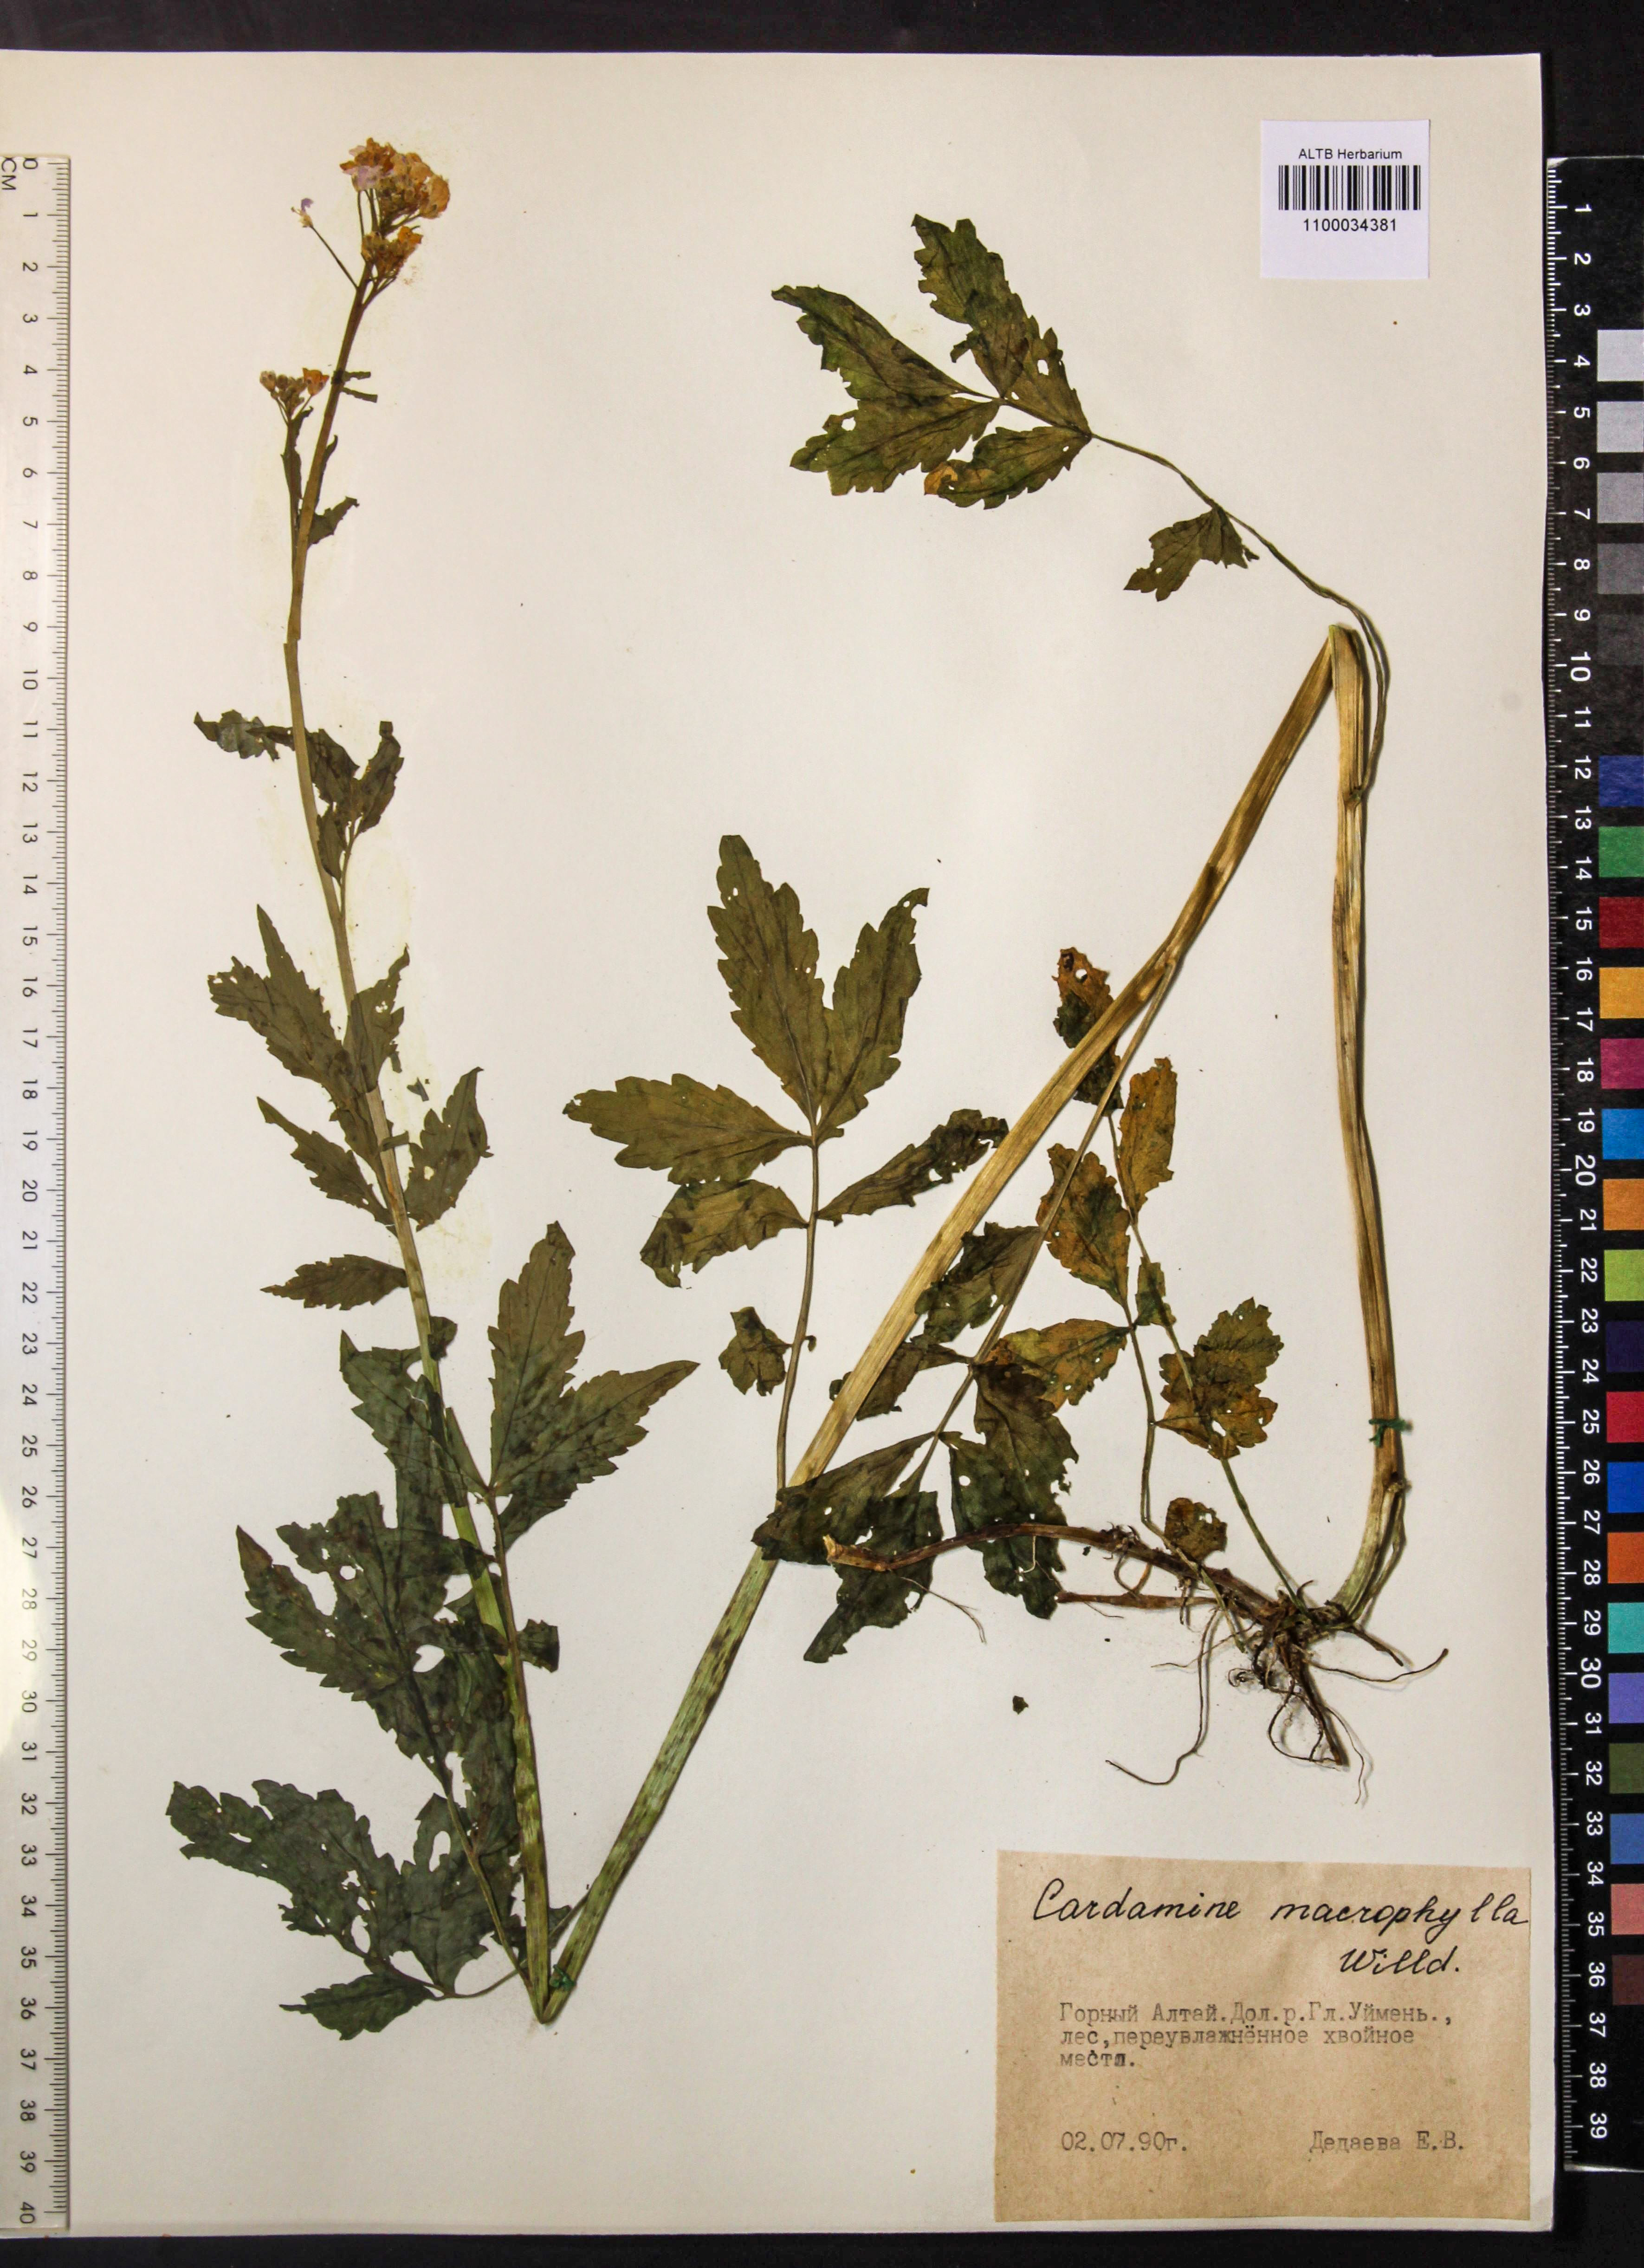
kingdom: Plantae
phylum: Tracheophyta
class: Magnoliopsida
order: Brassicales
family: Brassicaceae
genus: Cardamine
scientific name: Cardamine macrophylla
